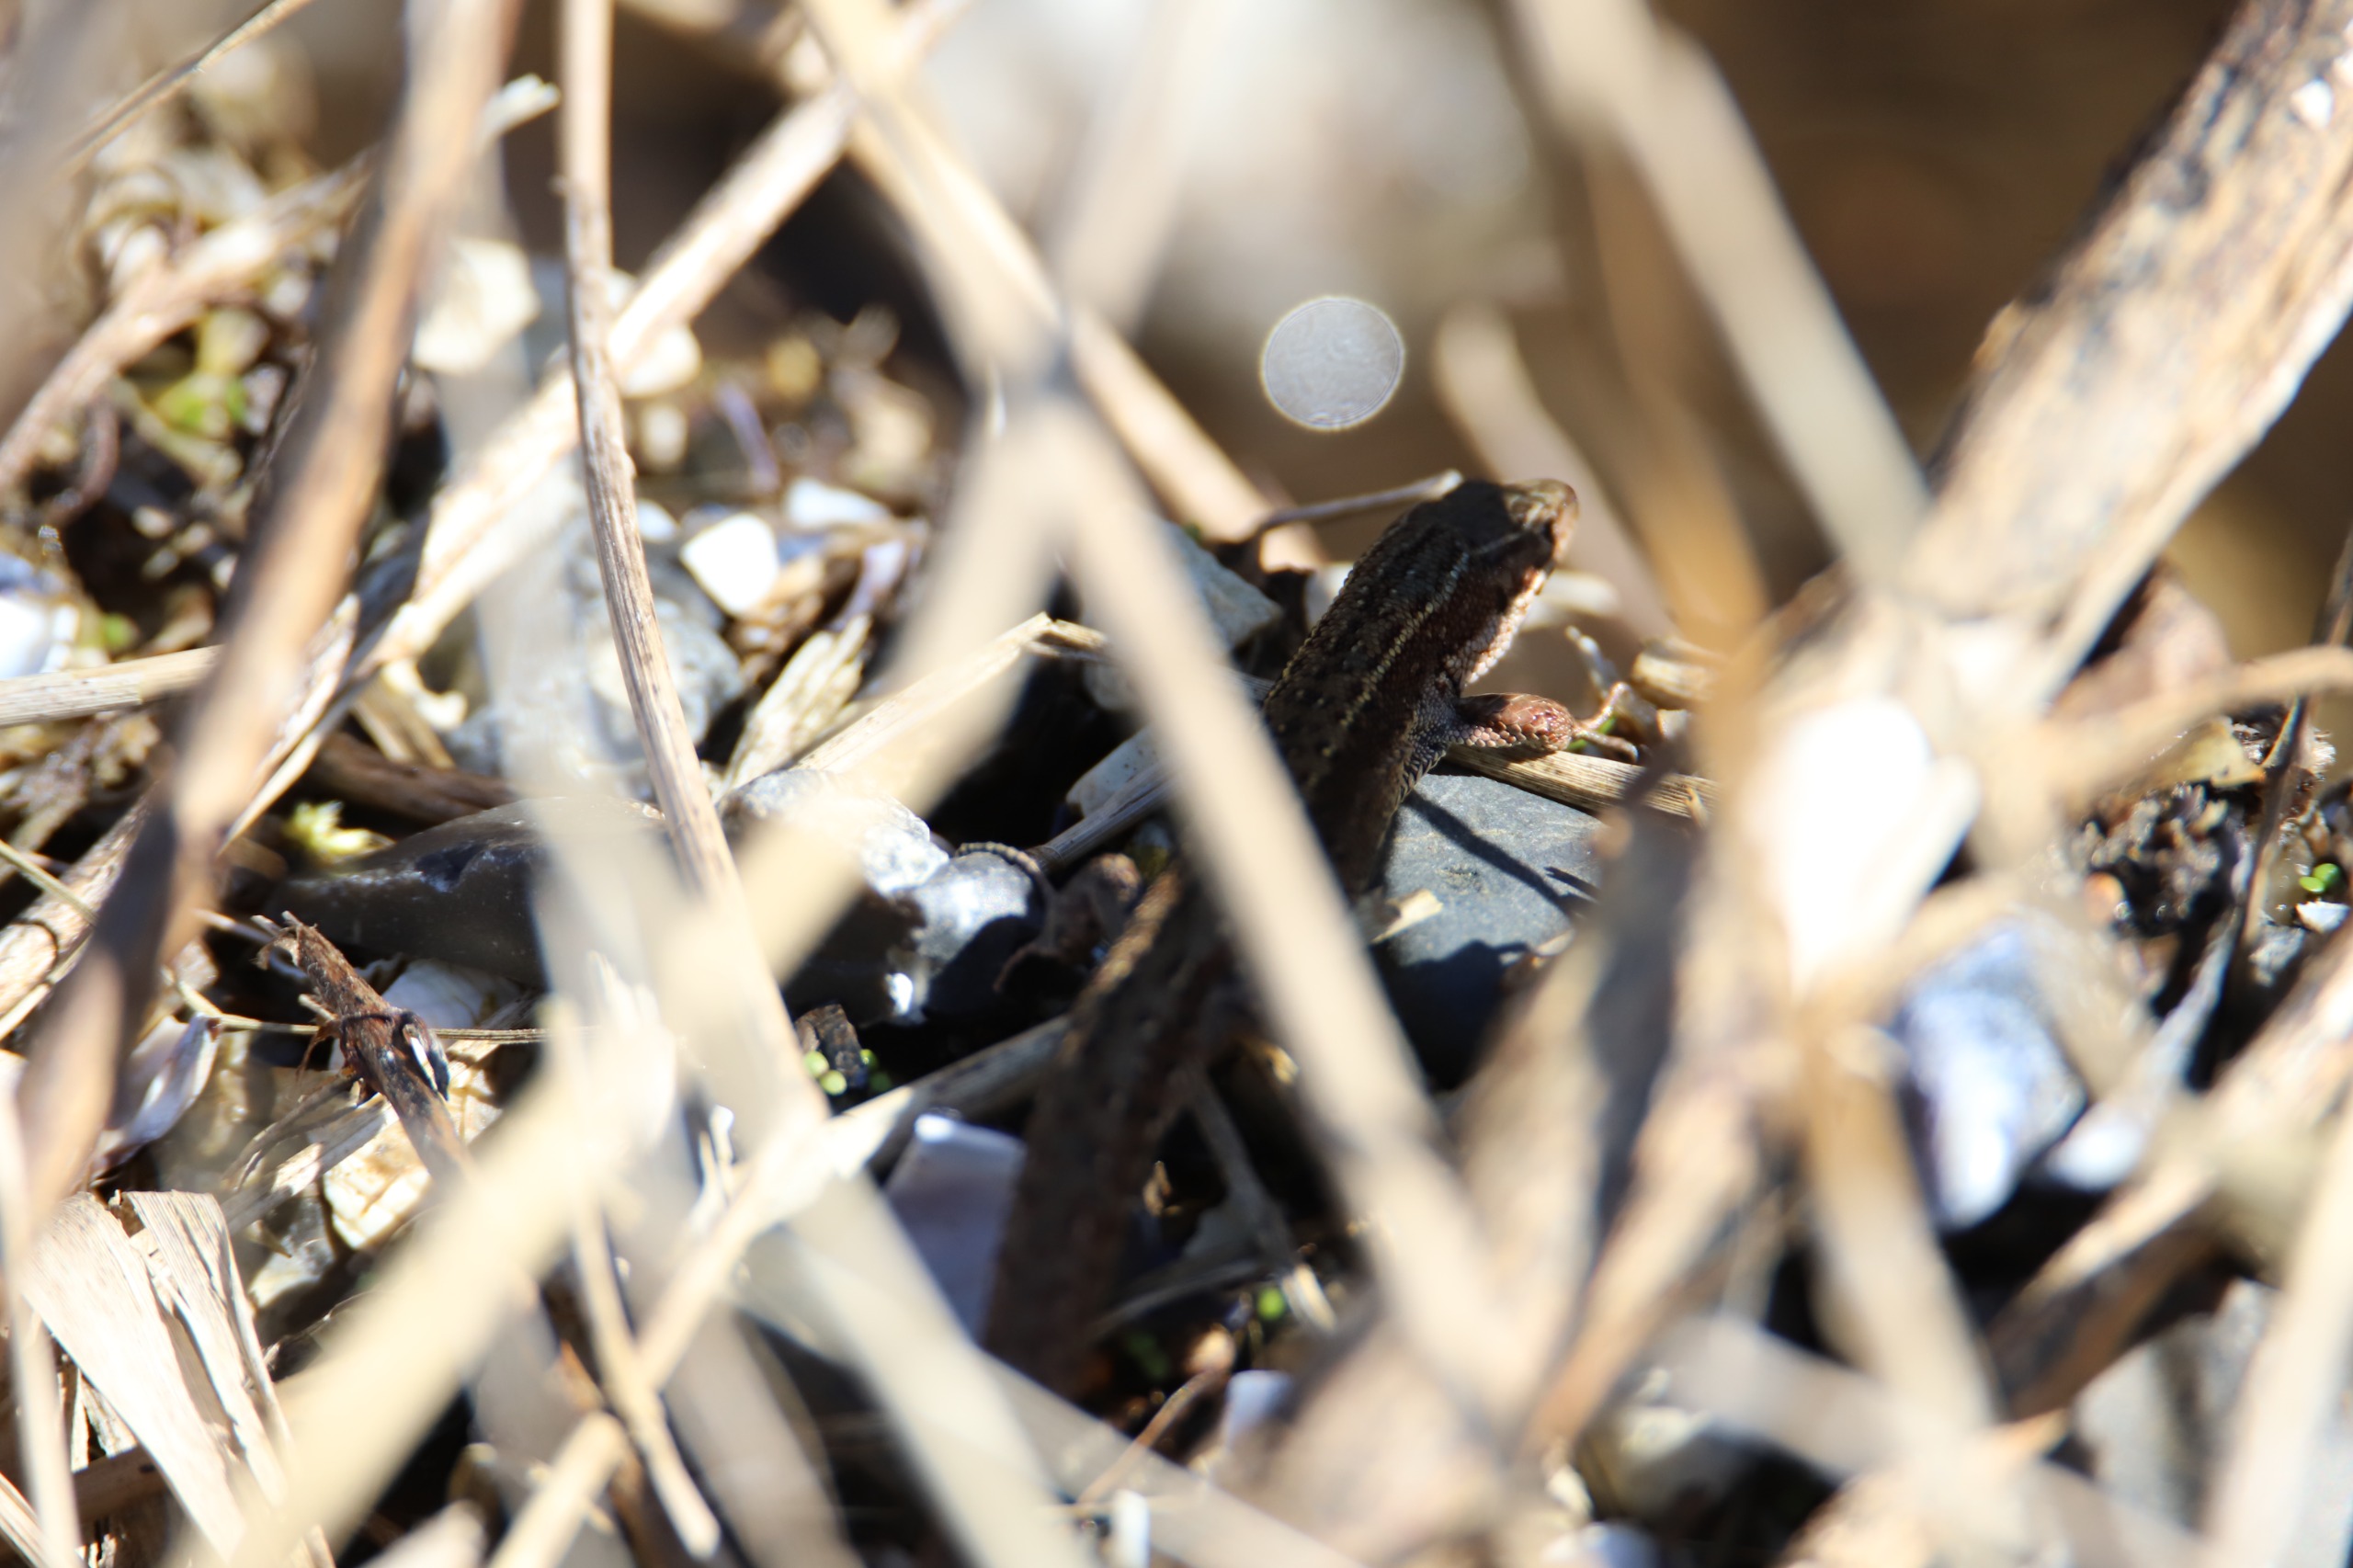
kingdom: Animalia
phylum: Chordata
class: Squamata
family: Lacertidae
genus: Zootoca
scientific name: Zootoca vivipara
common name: Skovfirben
